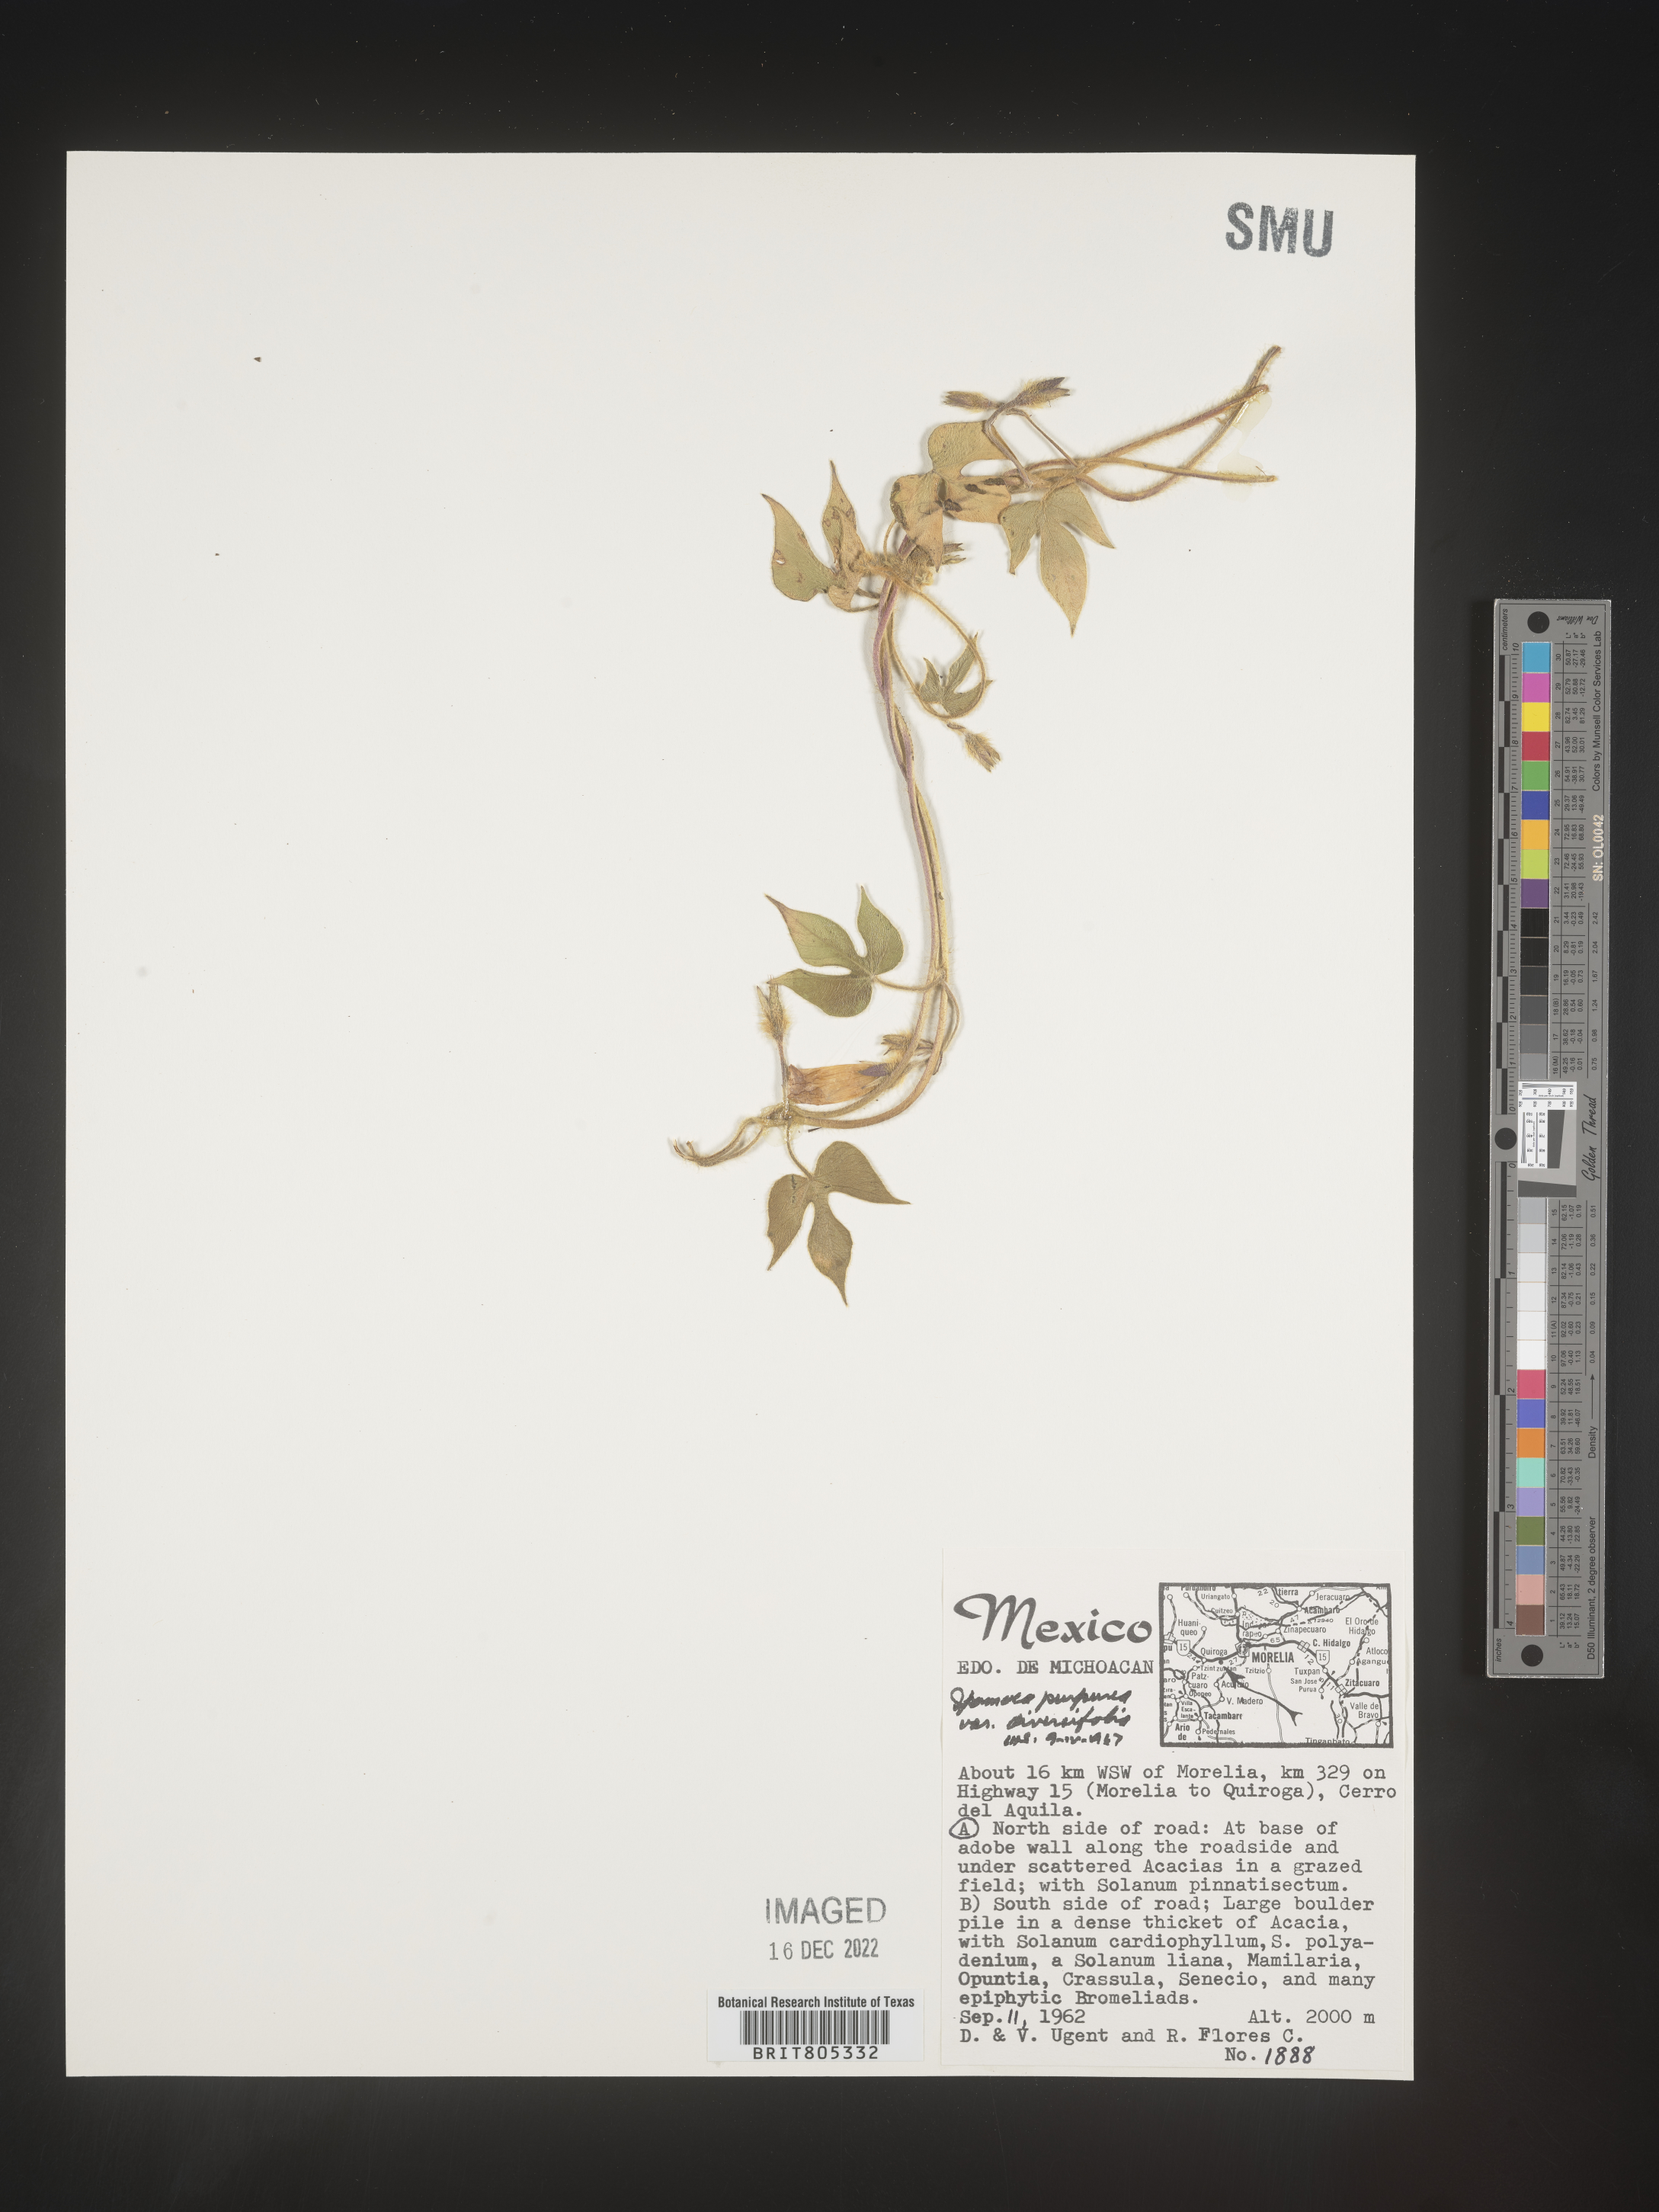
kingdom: Plantae
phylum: Tracheophyta
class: Magnoliopsida
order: Solanales
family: Convolvulaceae
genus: Ipomoea
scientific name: Ipomoea
